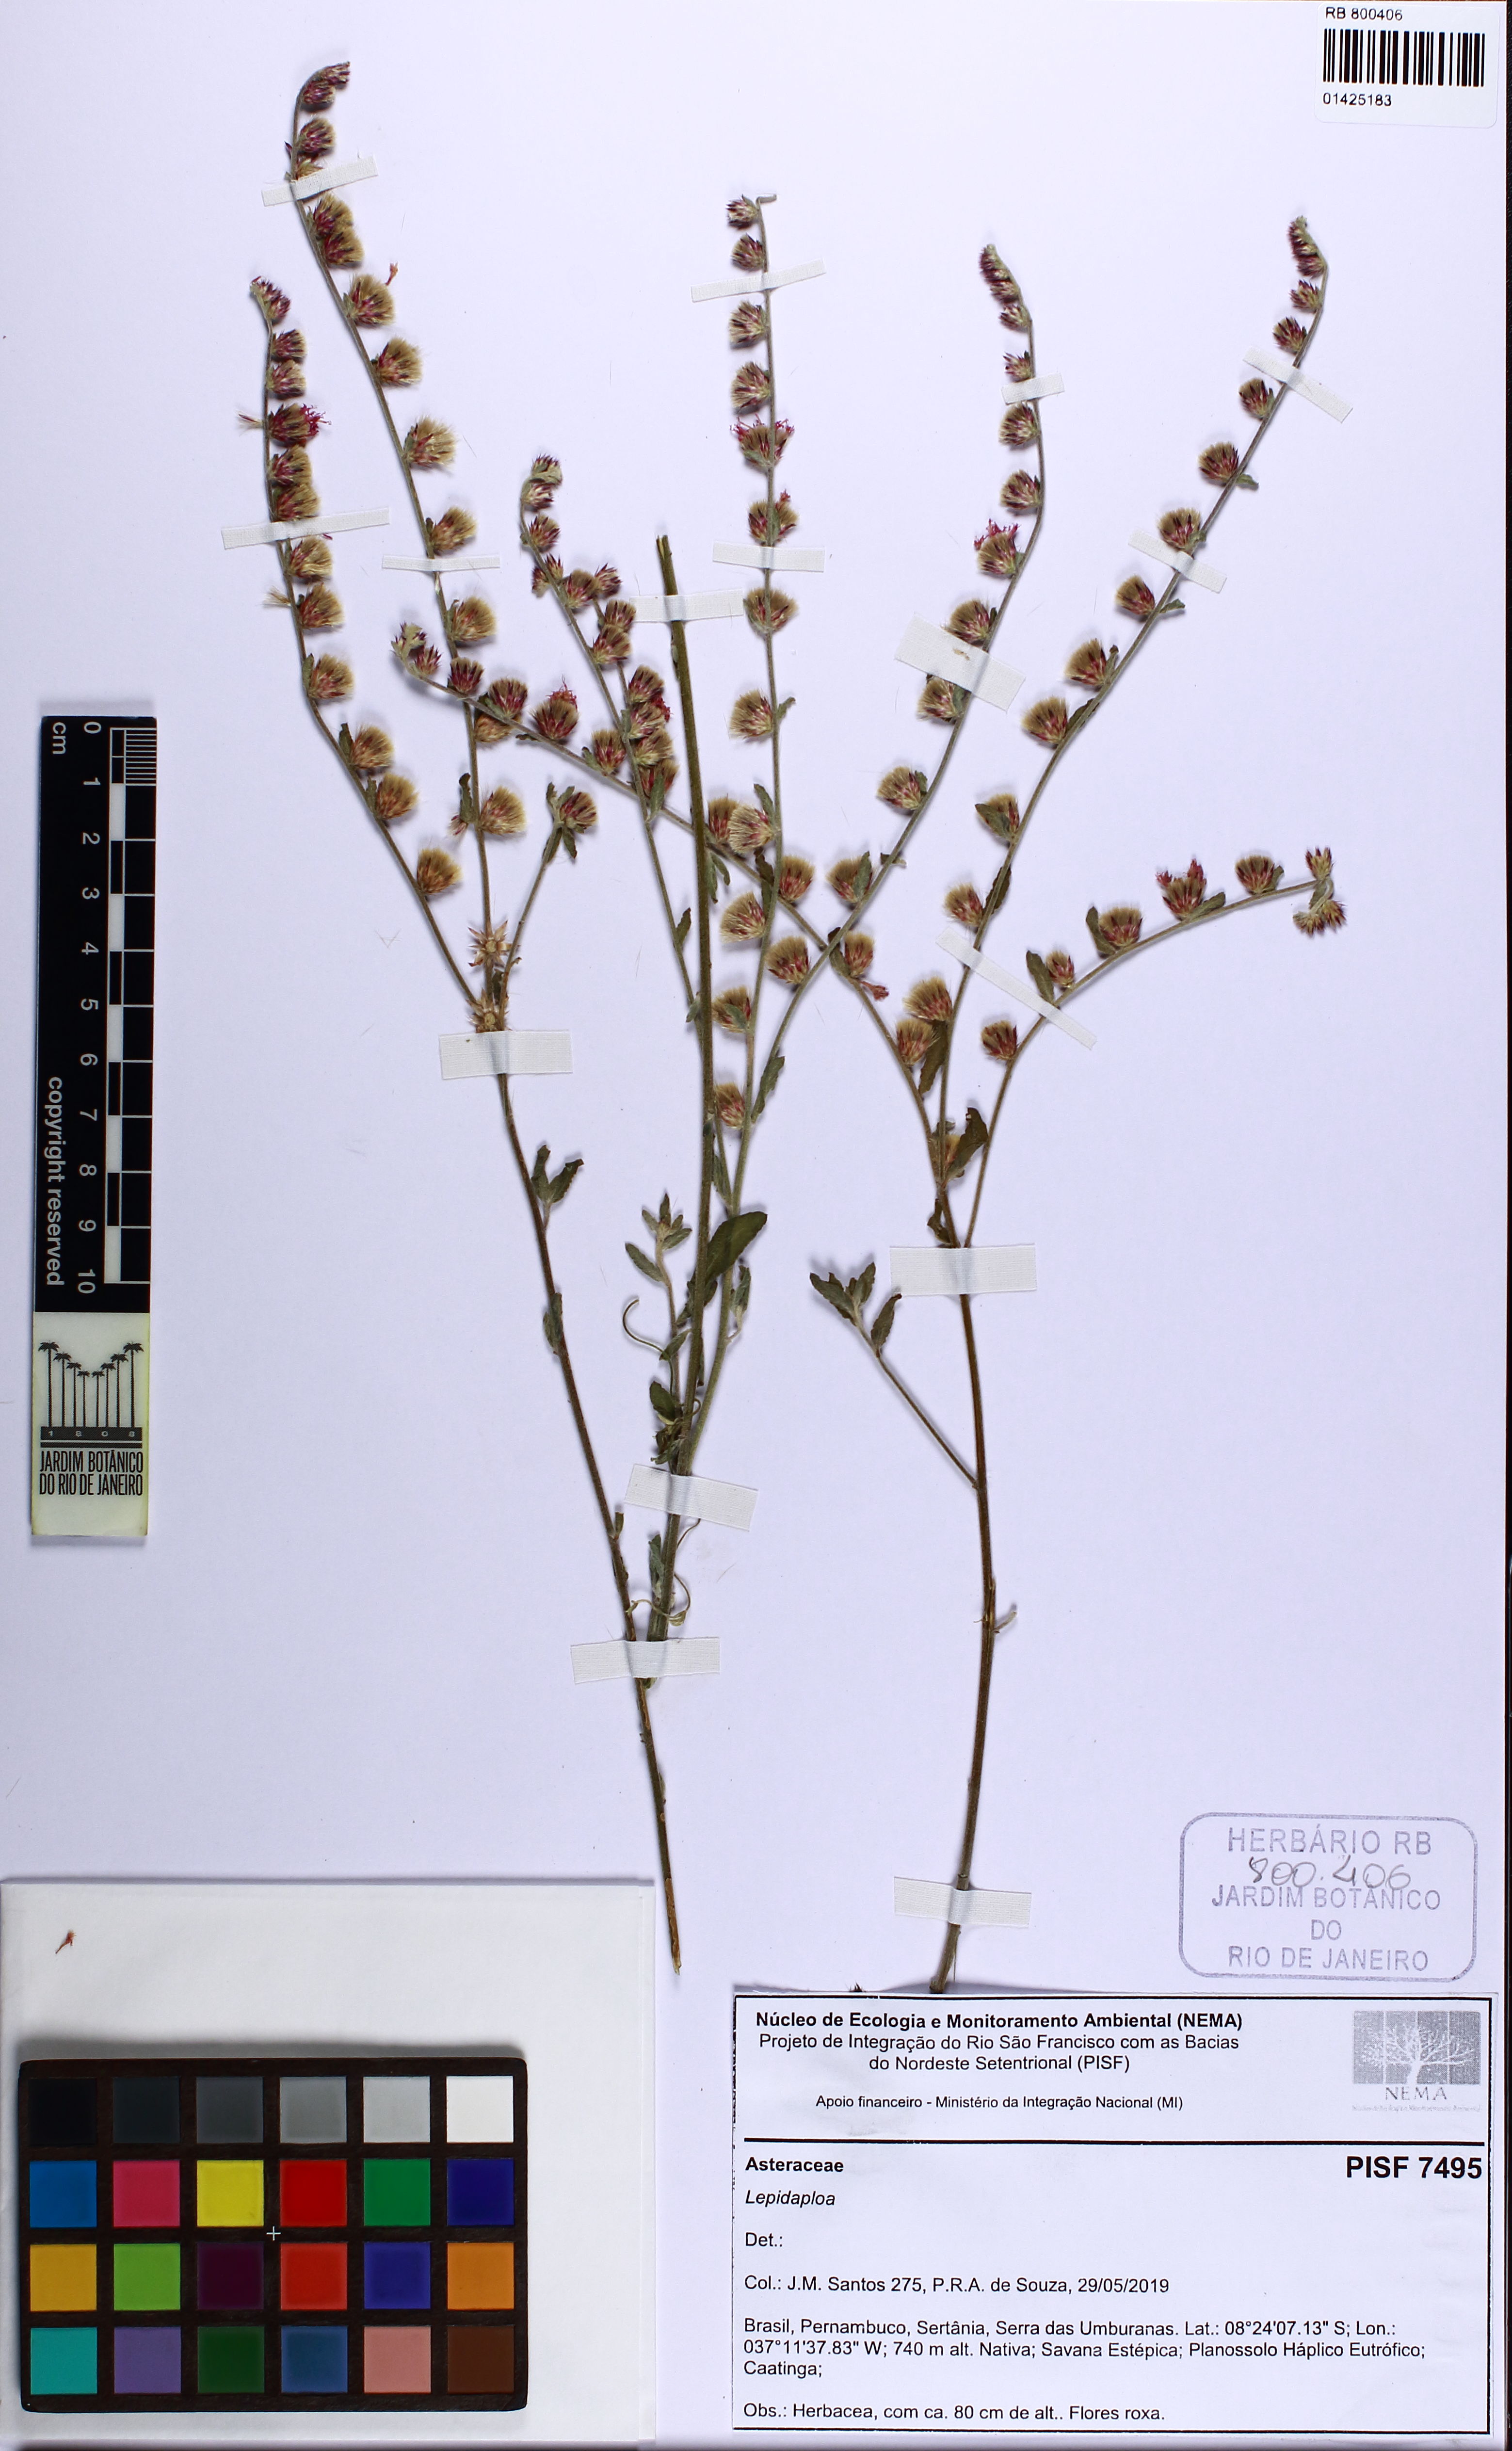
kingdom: Plantae
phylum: Tracheophyta
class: Magnoliopsida
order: Asterales
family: Asteraceae
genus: Lepidaploa
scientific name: Lepidaploa
